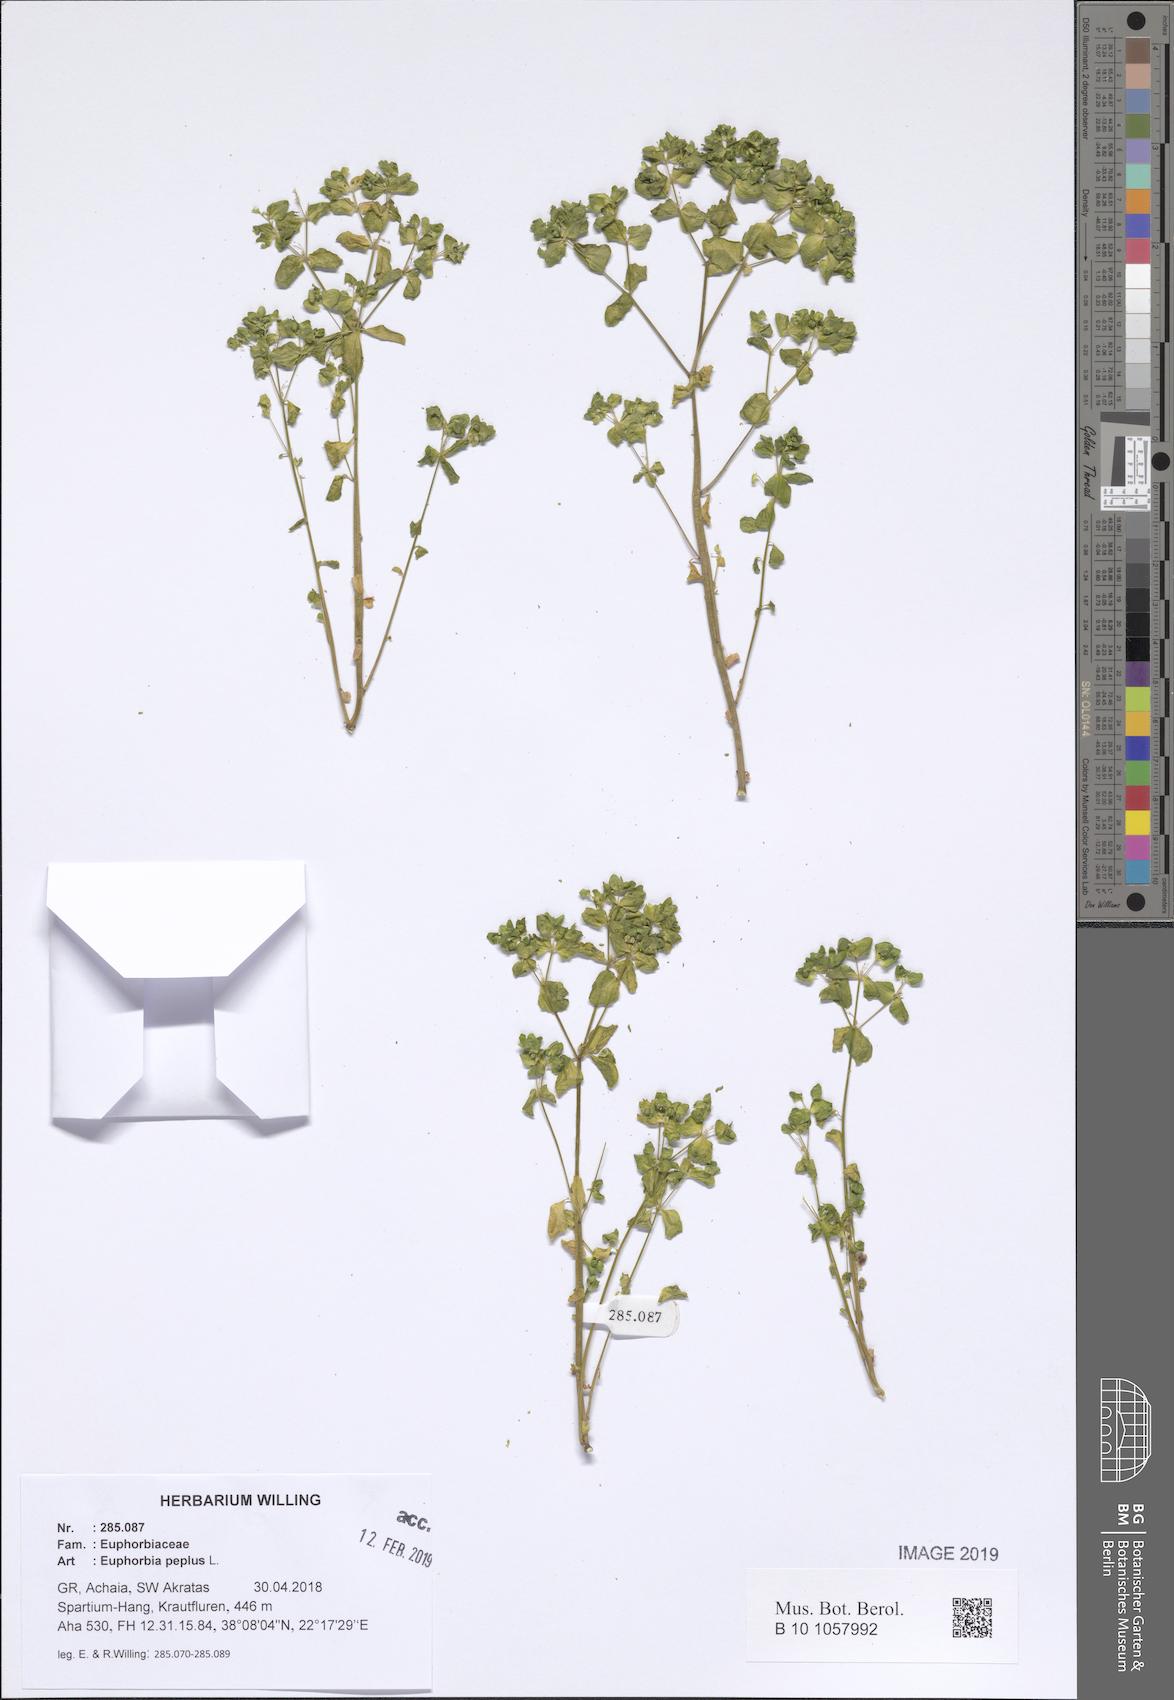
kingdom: Plantae
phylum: Tracheophyta
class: Magnoliopsida
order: Malpighiales
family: Euphorbiaceae
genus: Euphorbia
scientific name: Euphorbia peplus
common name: Petty spurge
